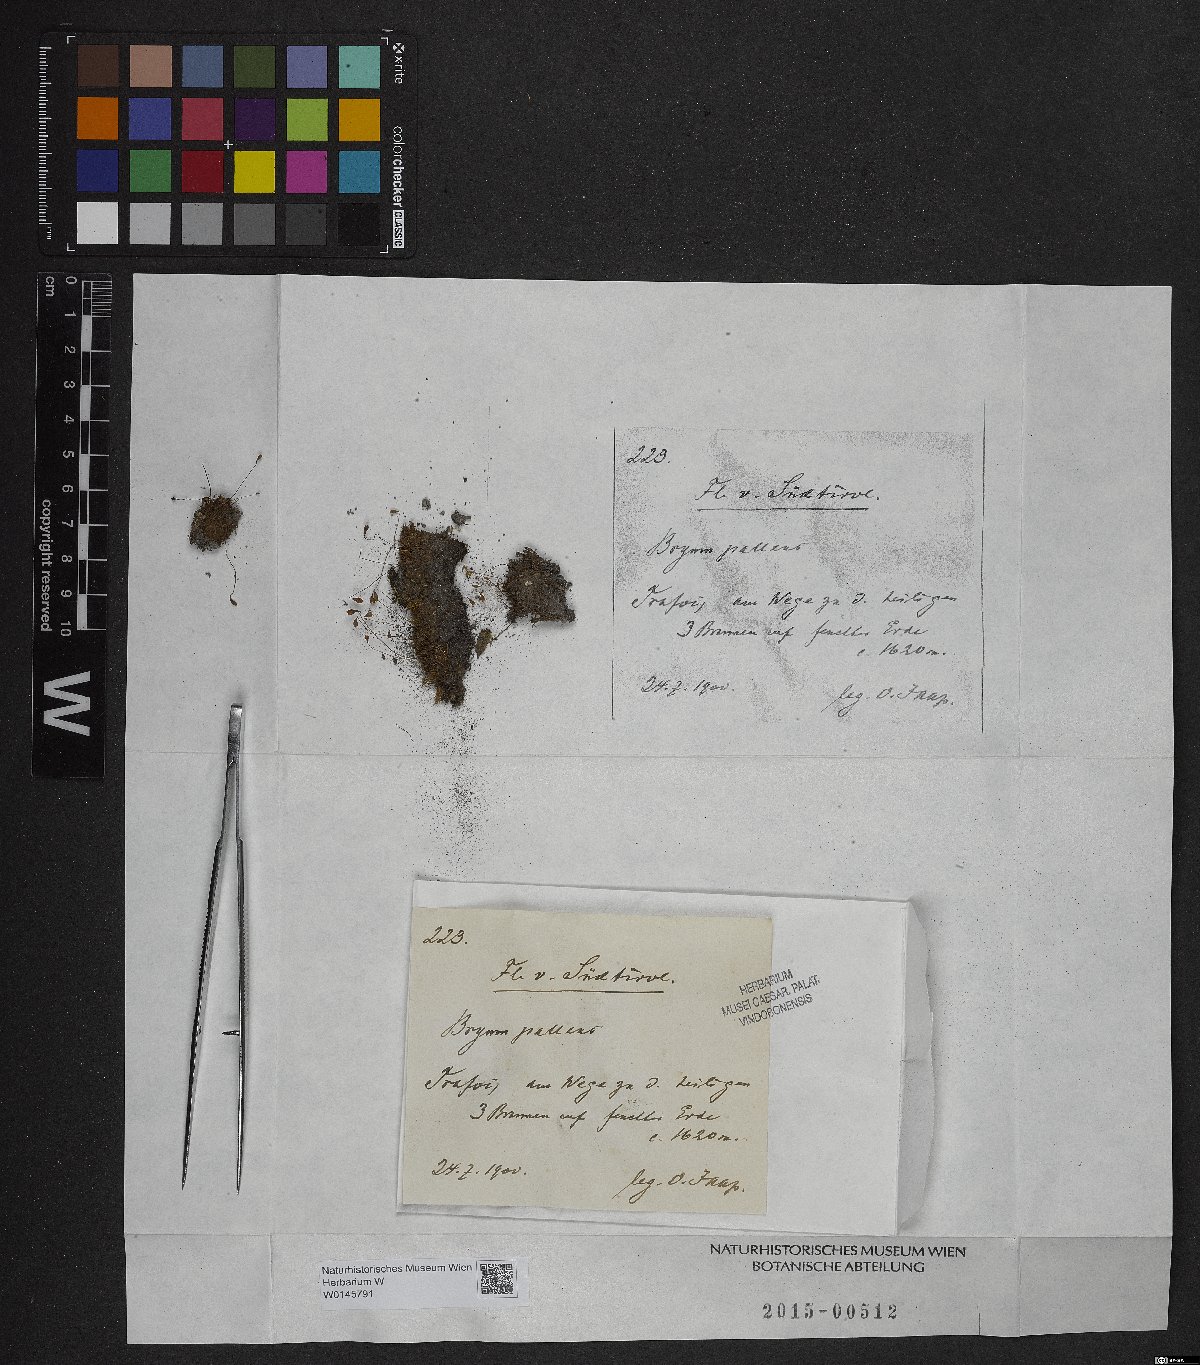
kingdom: Plantae
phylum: Bryophyta
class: Bryopsida
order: Bryales
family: Bryaceae
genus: Ptychostomum
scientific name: Ptychostomum pallens
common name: Pale thread-moss
